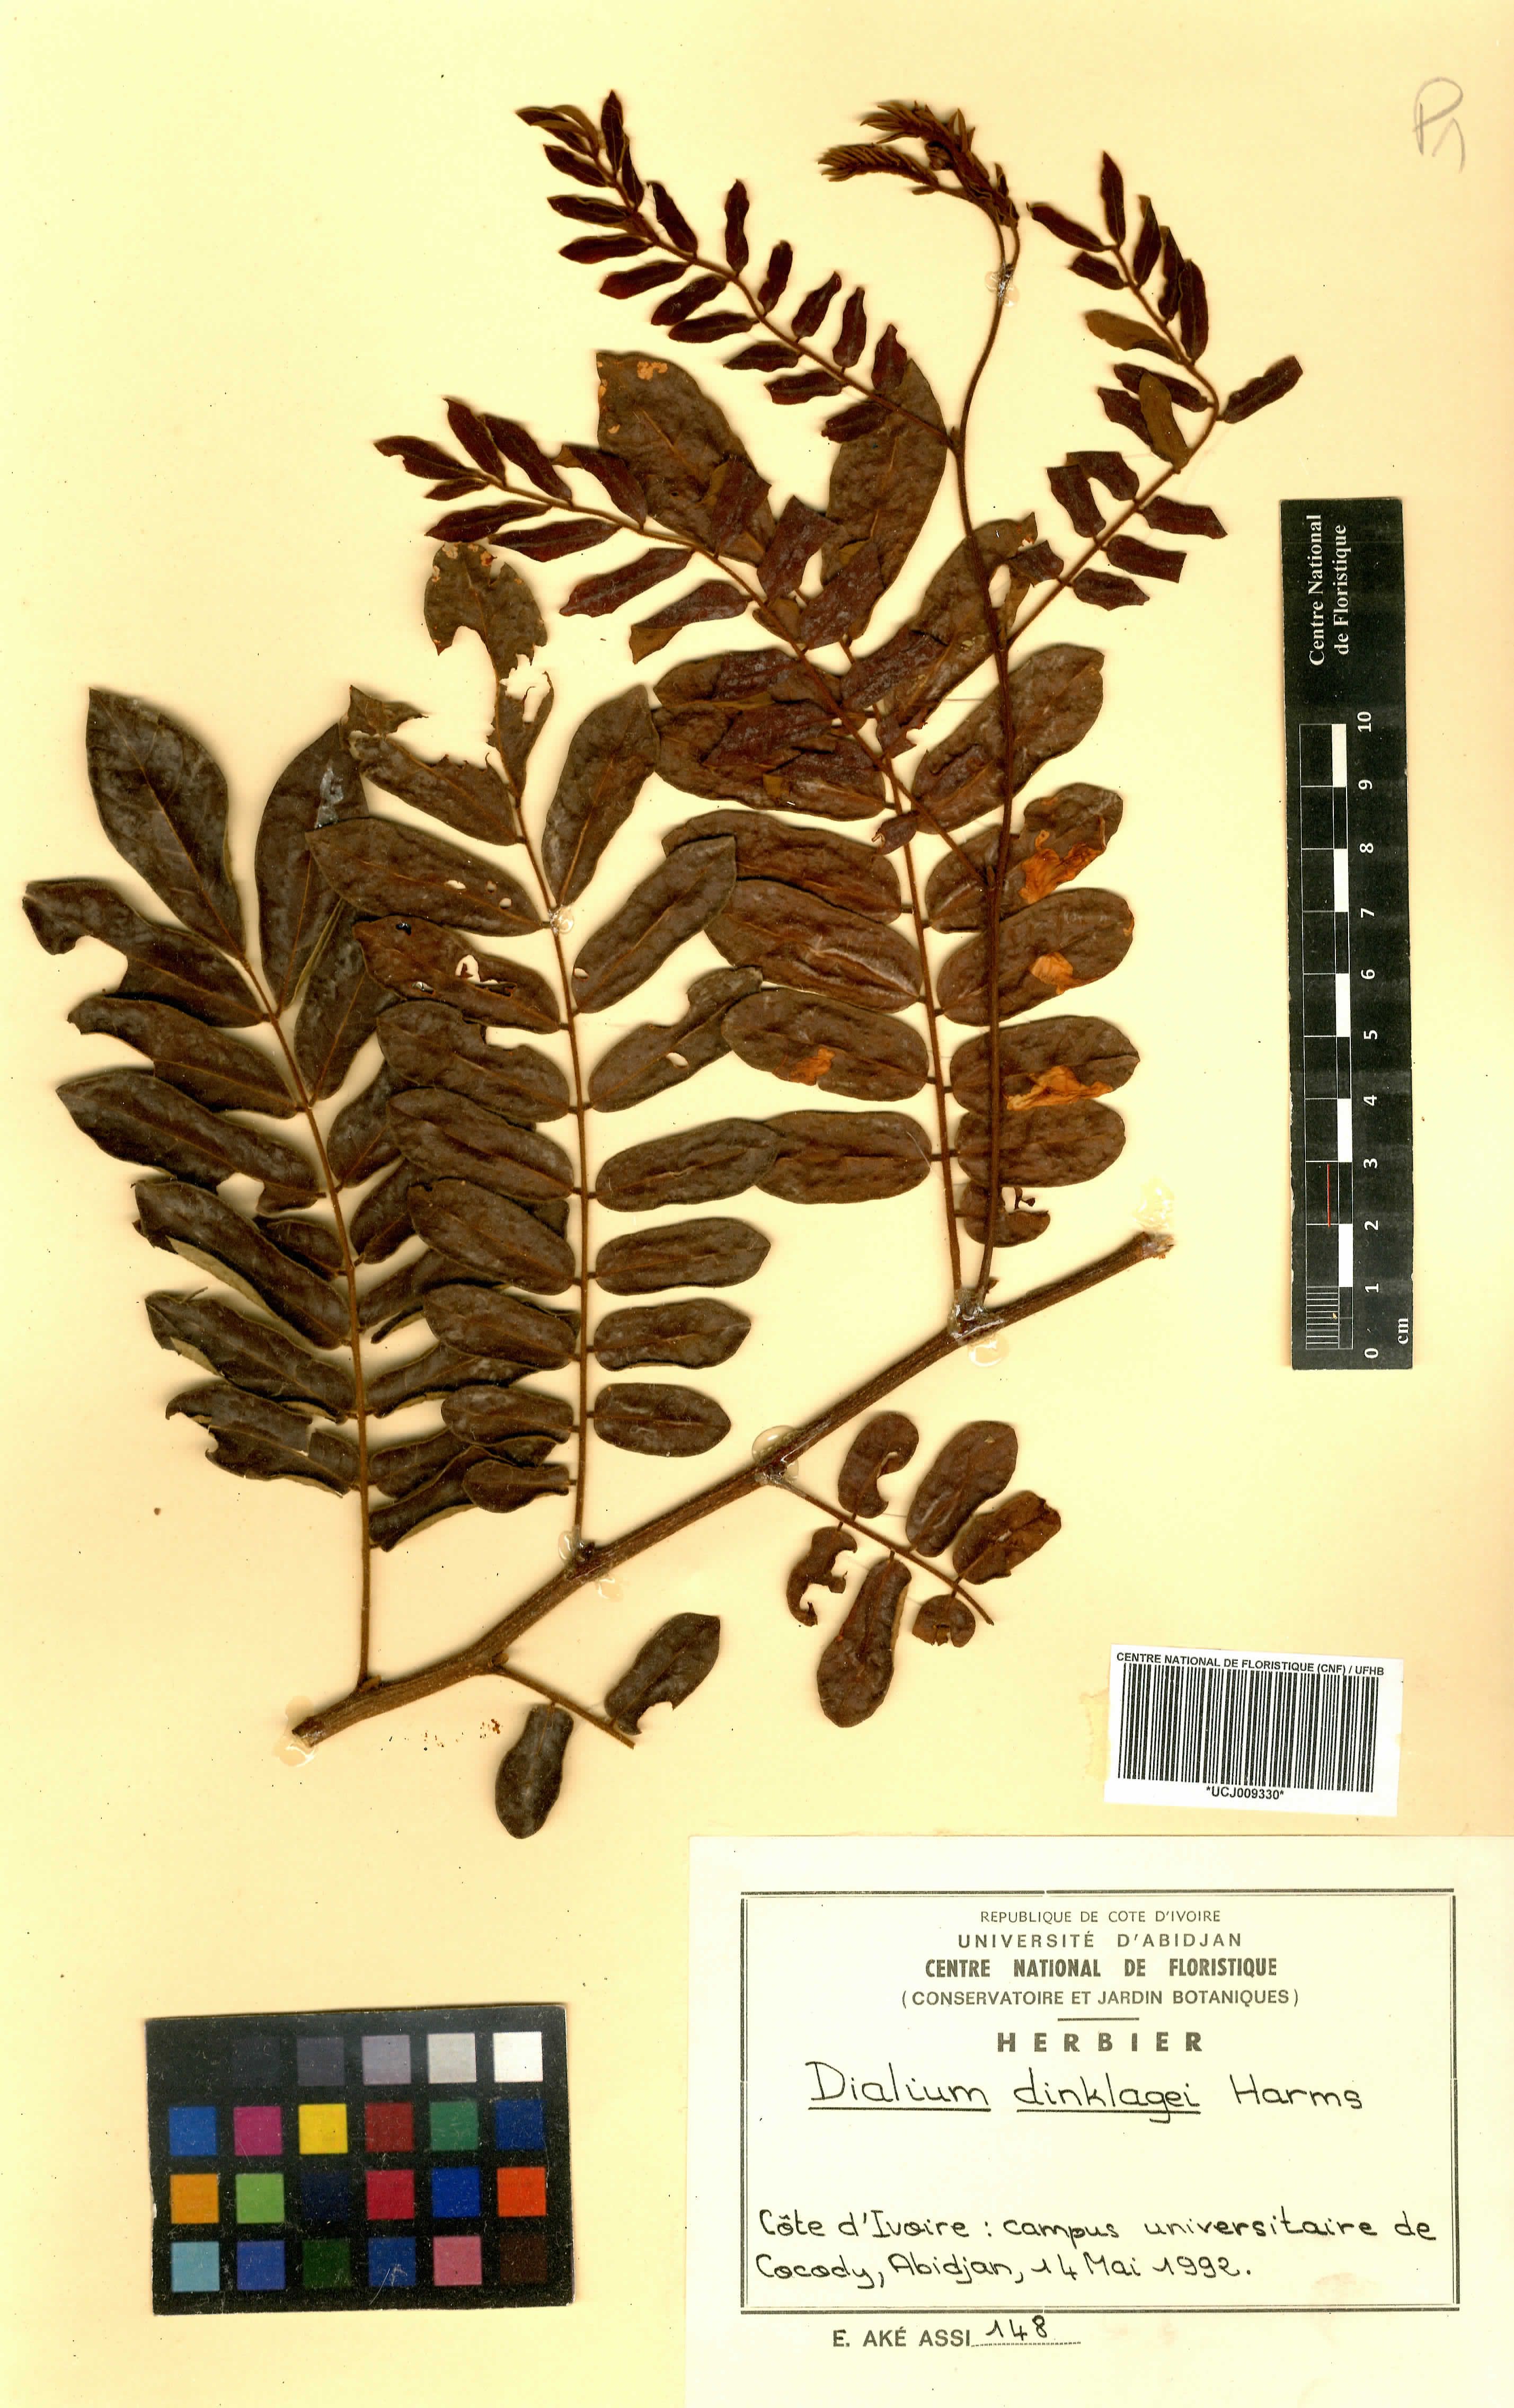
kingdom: Plantae
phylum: Tracheophyta
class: Magnoliopsida
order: Fabales
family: Fabaceae
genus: Dialium
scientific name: Dialium dinklagei
